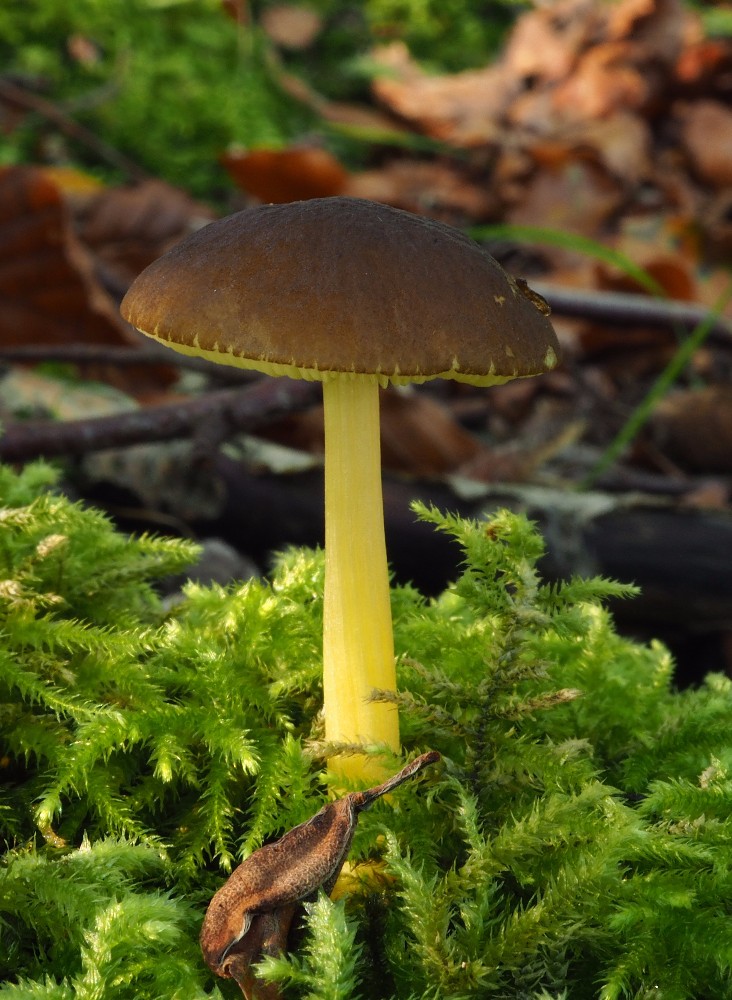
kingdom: Fungi
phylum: Basidiomycota
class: Agaricomycetes
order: Agaricales
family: Pluteaceae
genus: Pluteus
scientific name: Pluteus romellii
